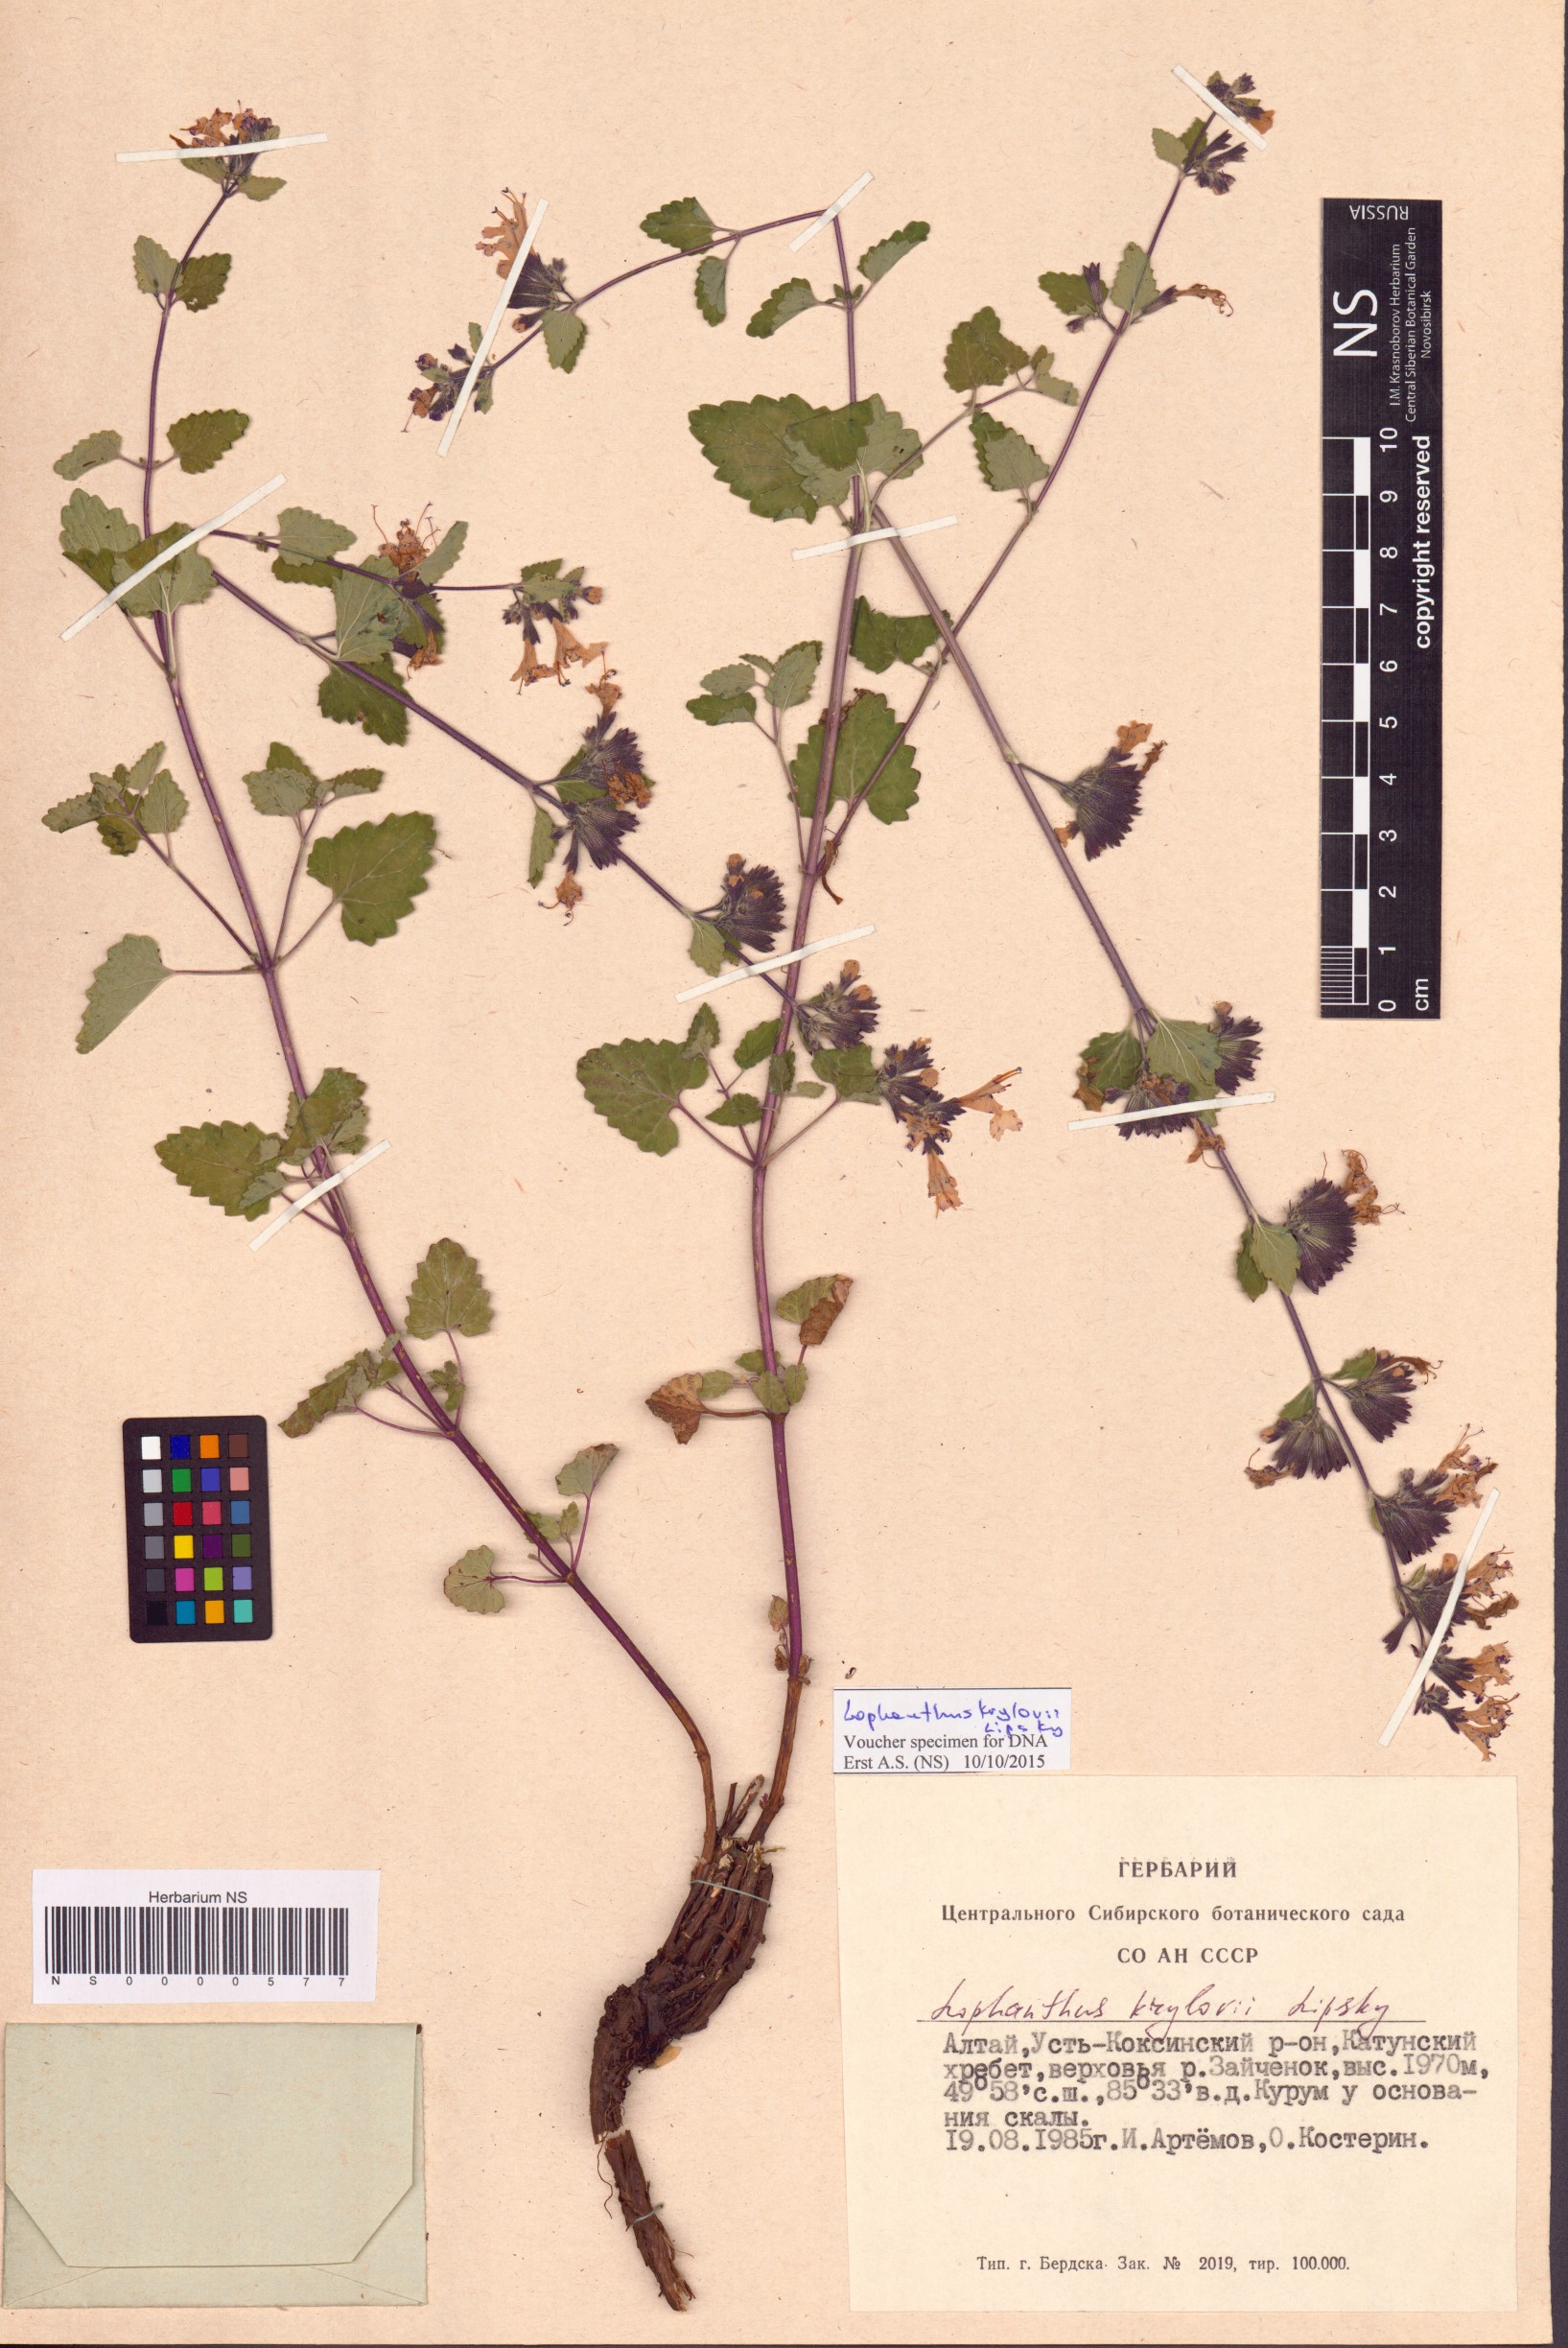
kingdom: Plantae
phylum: Tracheophyta
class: Magnoliopsida
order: Lamiales
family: Lamiaceae
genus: Lophanthus
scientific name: Lophanthus krylovii
